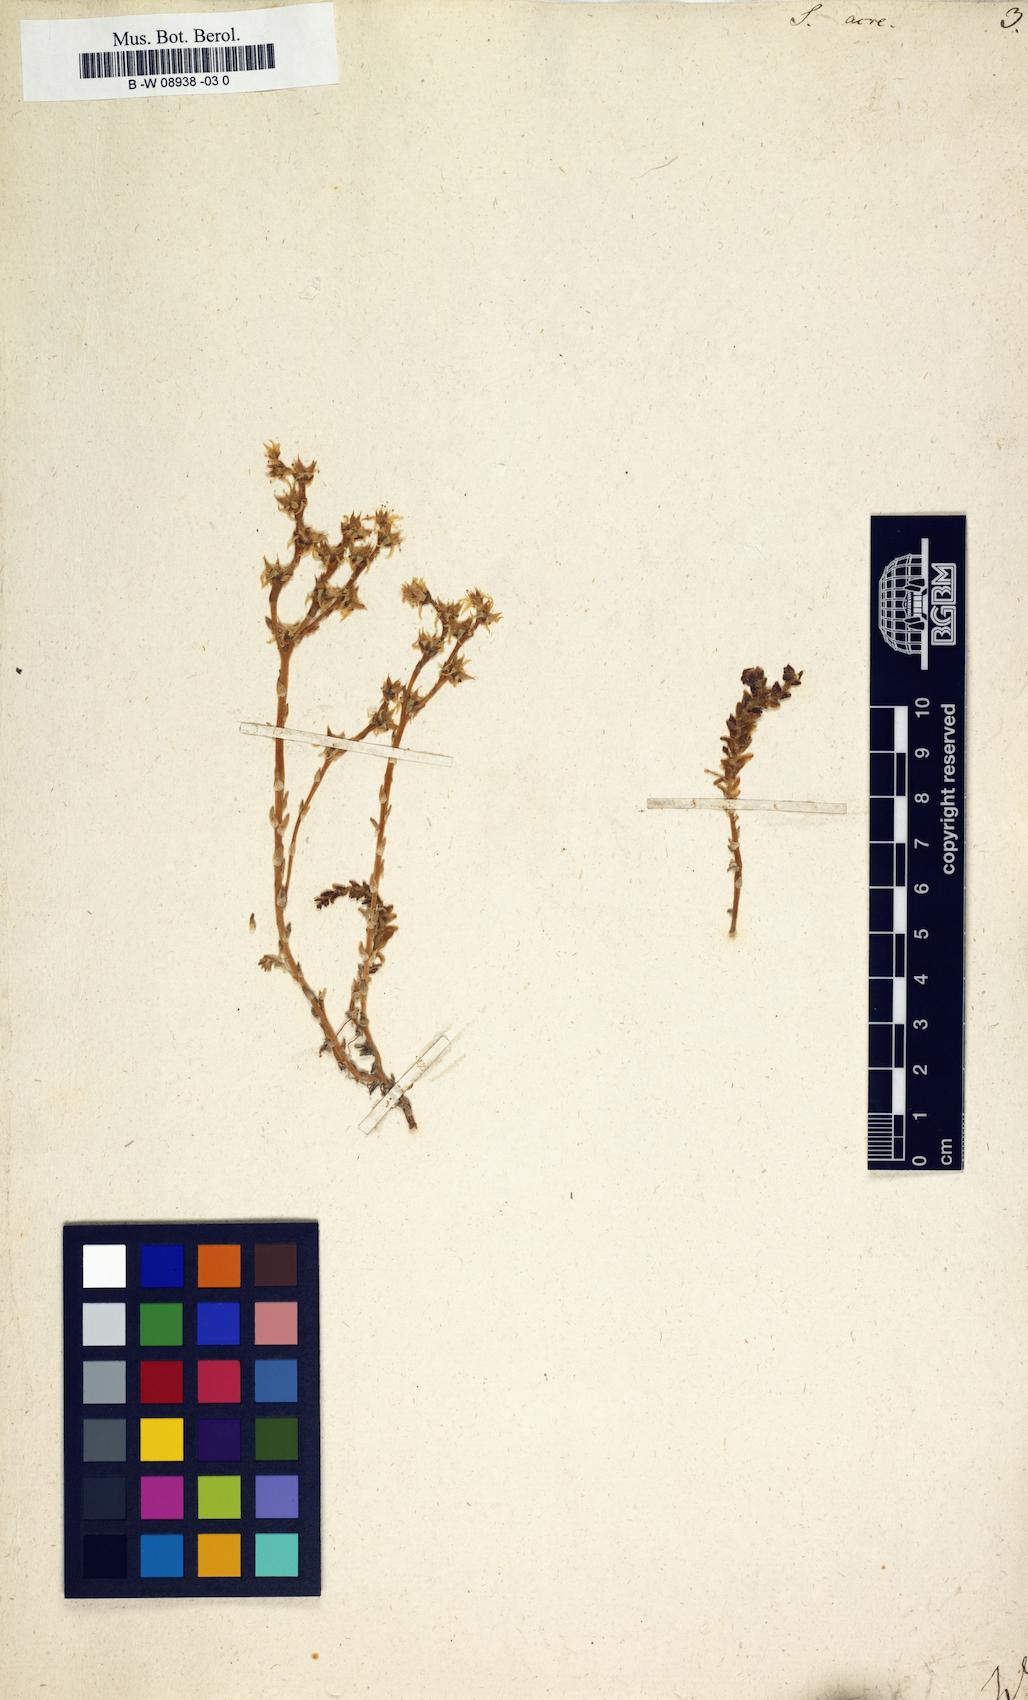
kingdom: Plantae
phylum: Tracheophyta
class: Magnoliopsida
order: Saxifragales
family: Crassulaceae
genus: Sedum
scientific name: Sedum acre
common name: Biting stonecrop
